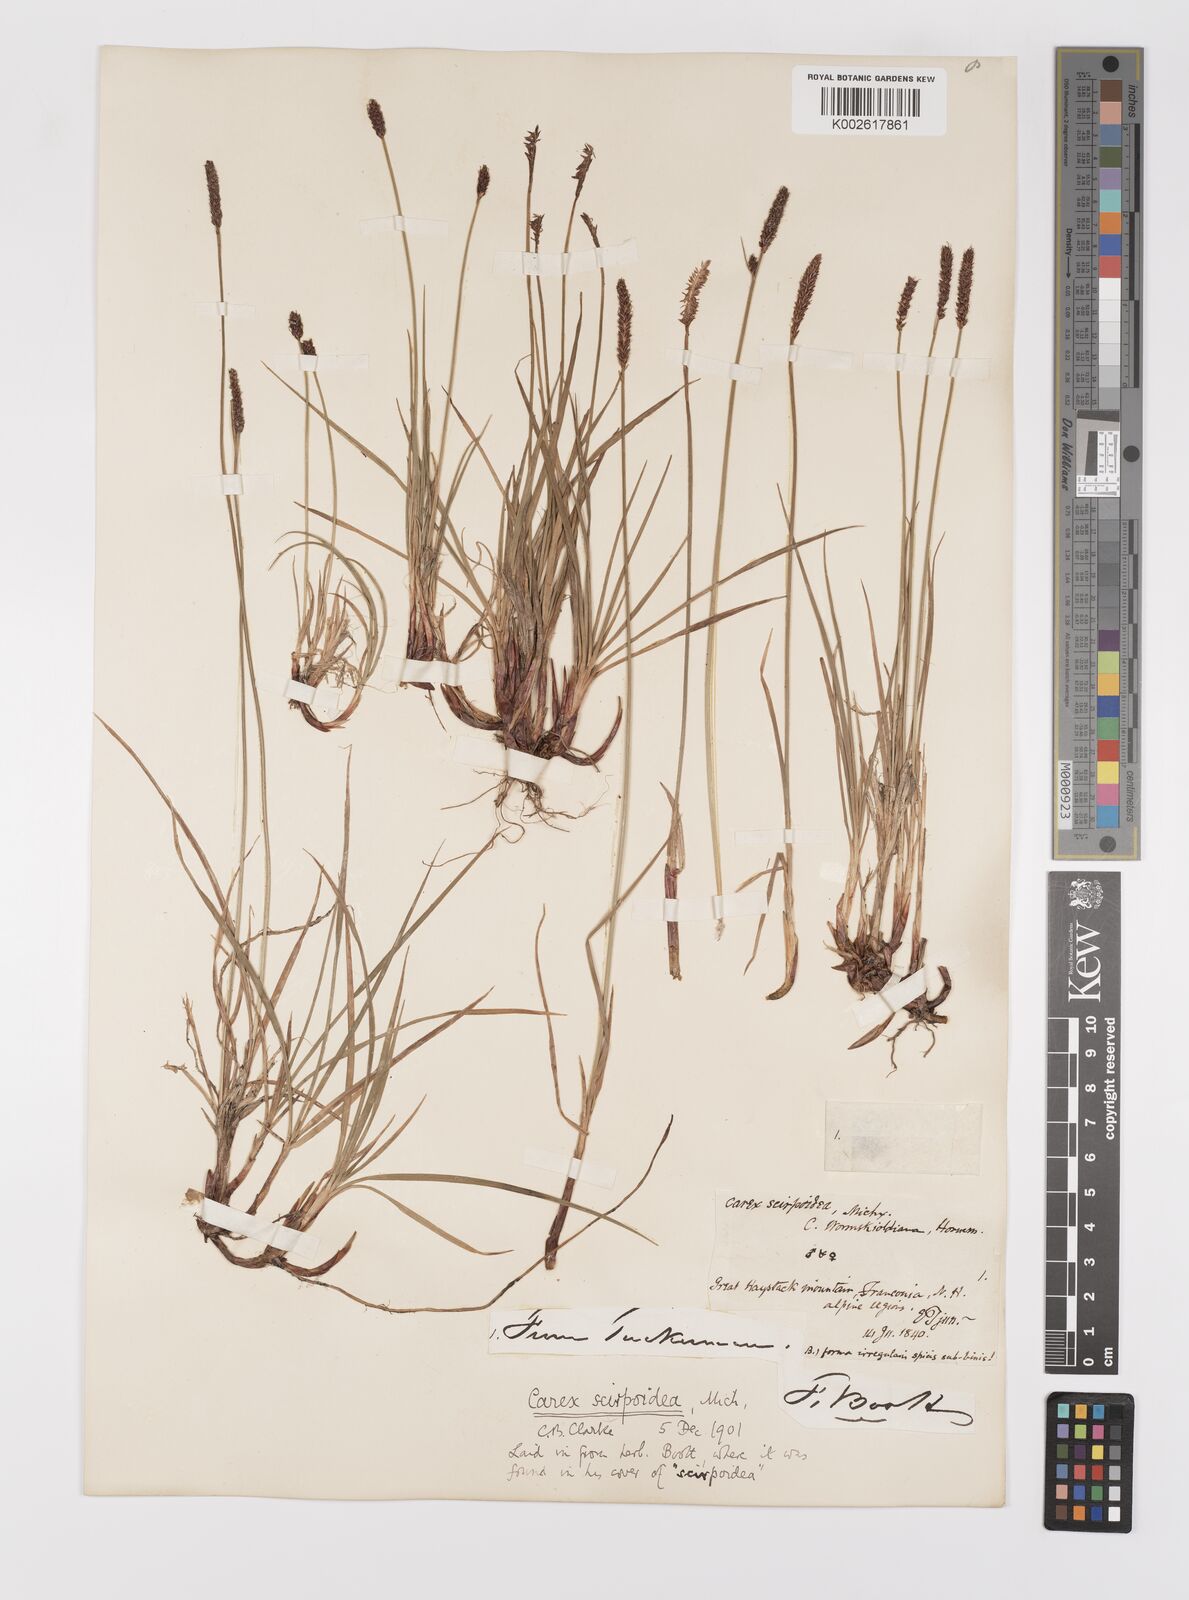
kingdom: Plantae
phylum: Tracheophyta
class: Liliopsida
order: Poales
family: Cyperaceae
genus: Carex
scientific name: Carex scirpoidea
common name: Canada single-spike sedge
